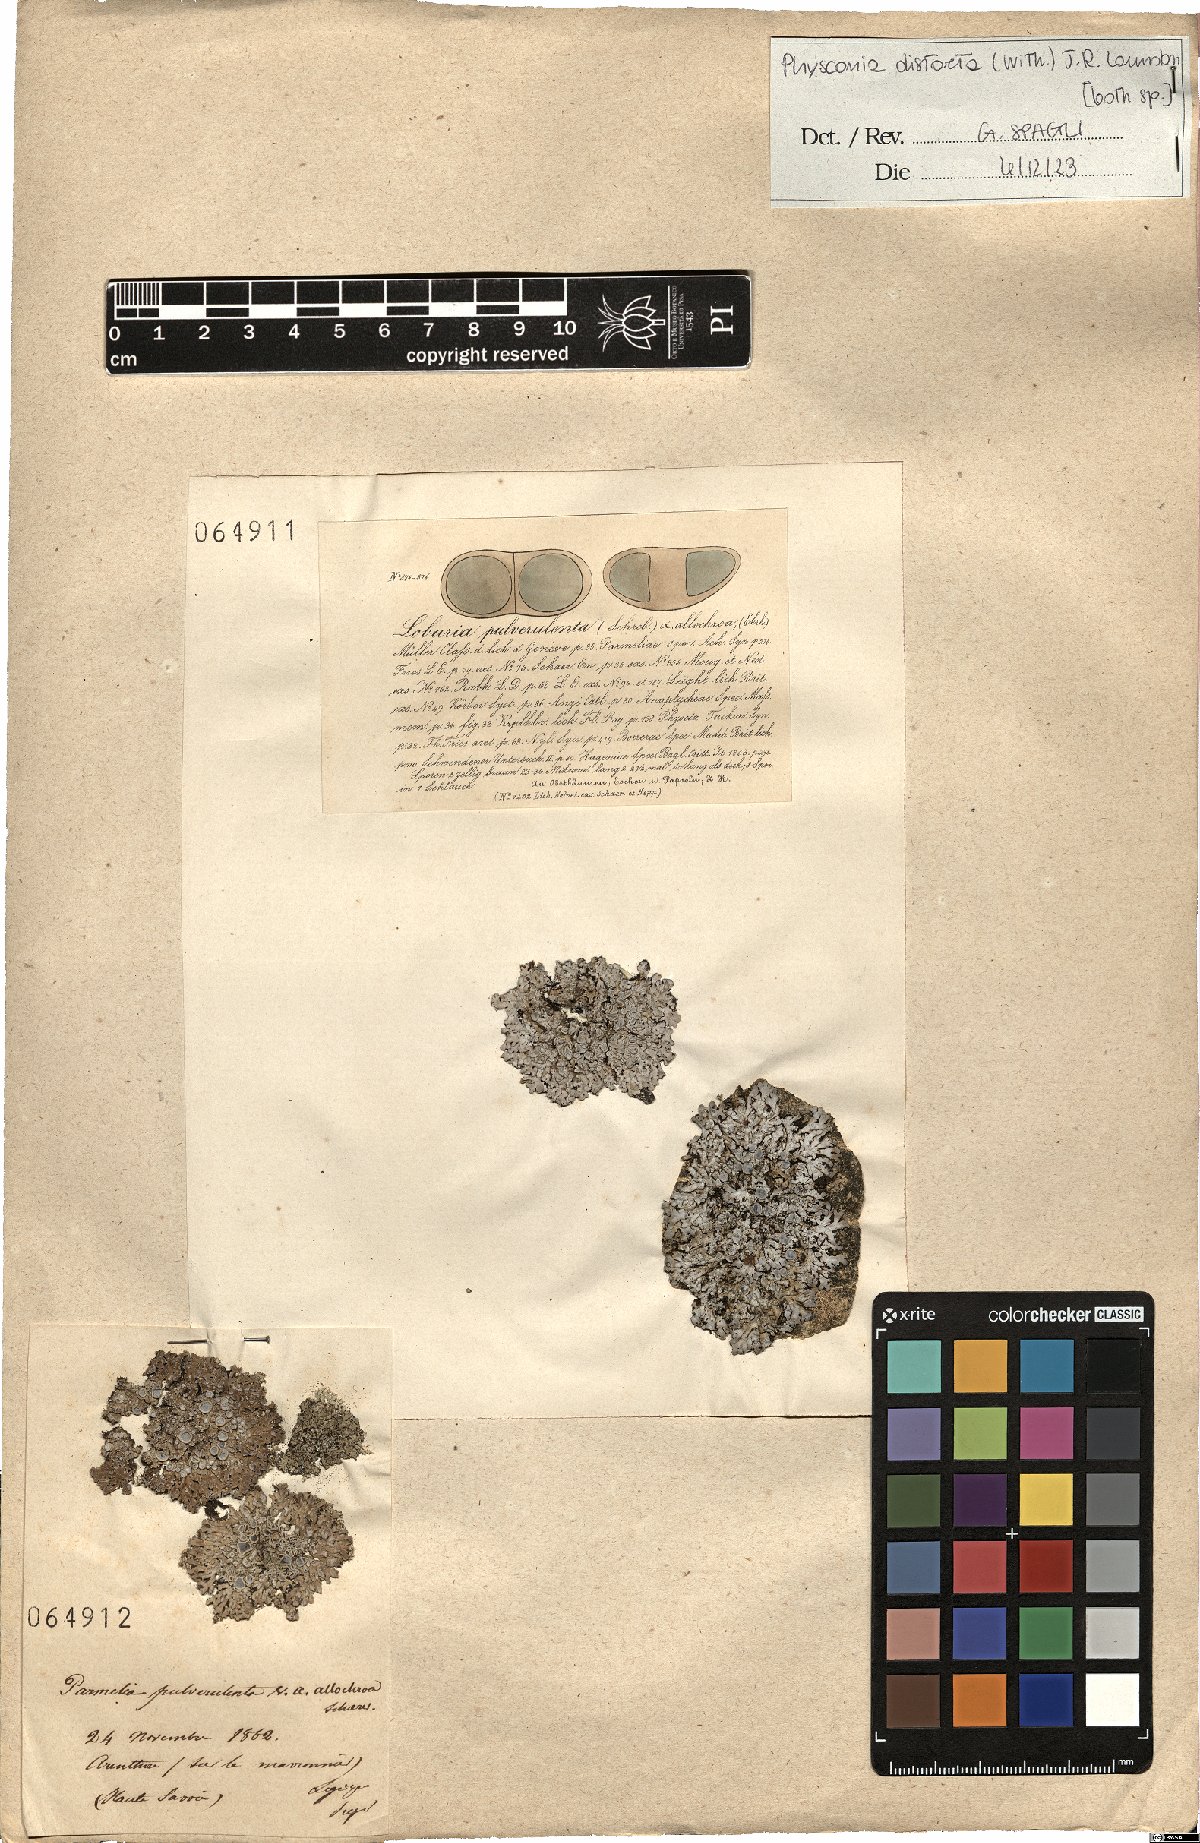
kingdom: Fungi
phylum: Ascomycota
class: Lecanoromycetes
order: Caliciales
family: Physciaceae
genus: Physconia
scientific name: Physconia distorta
